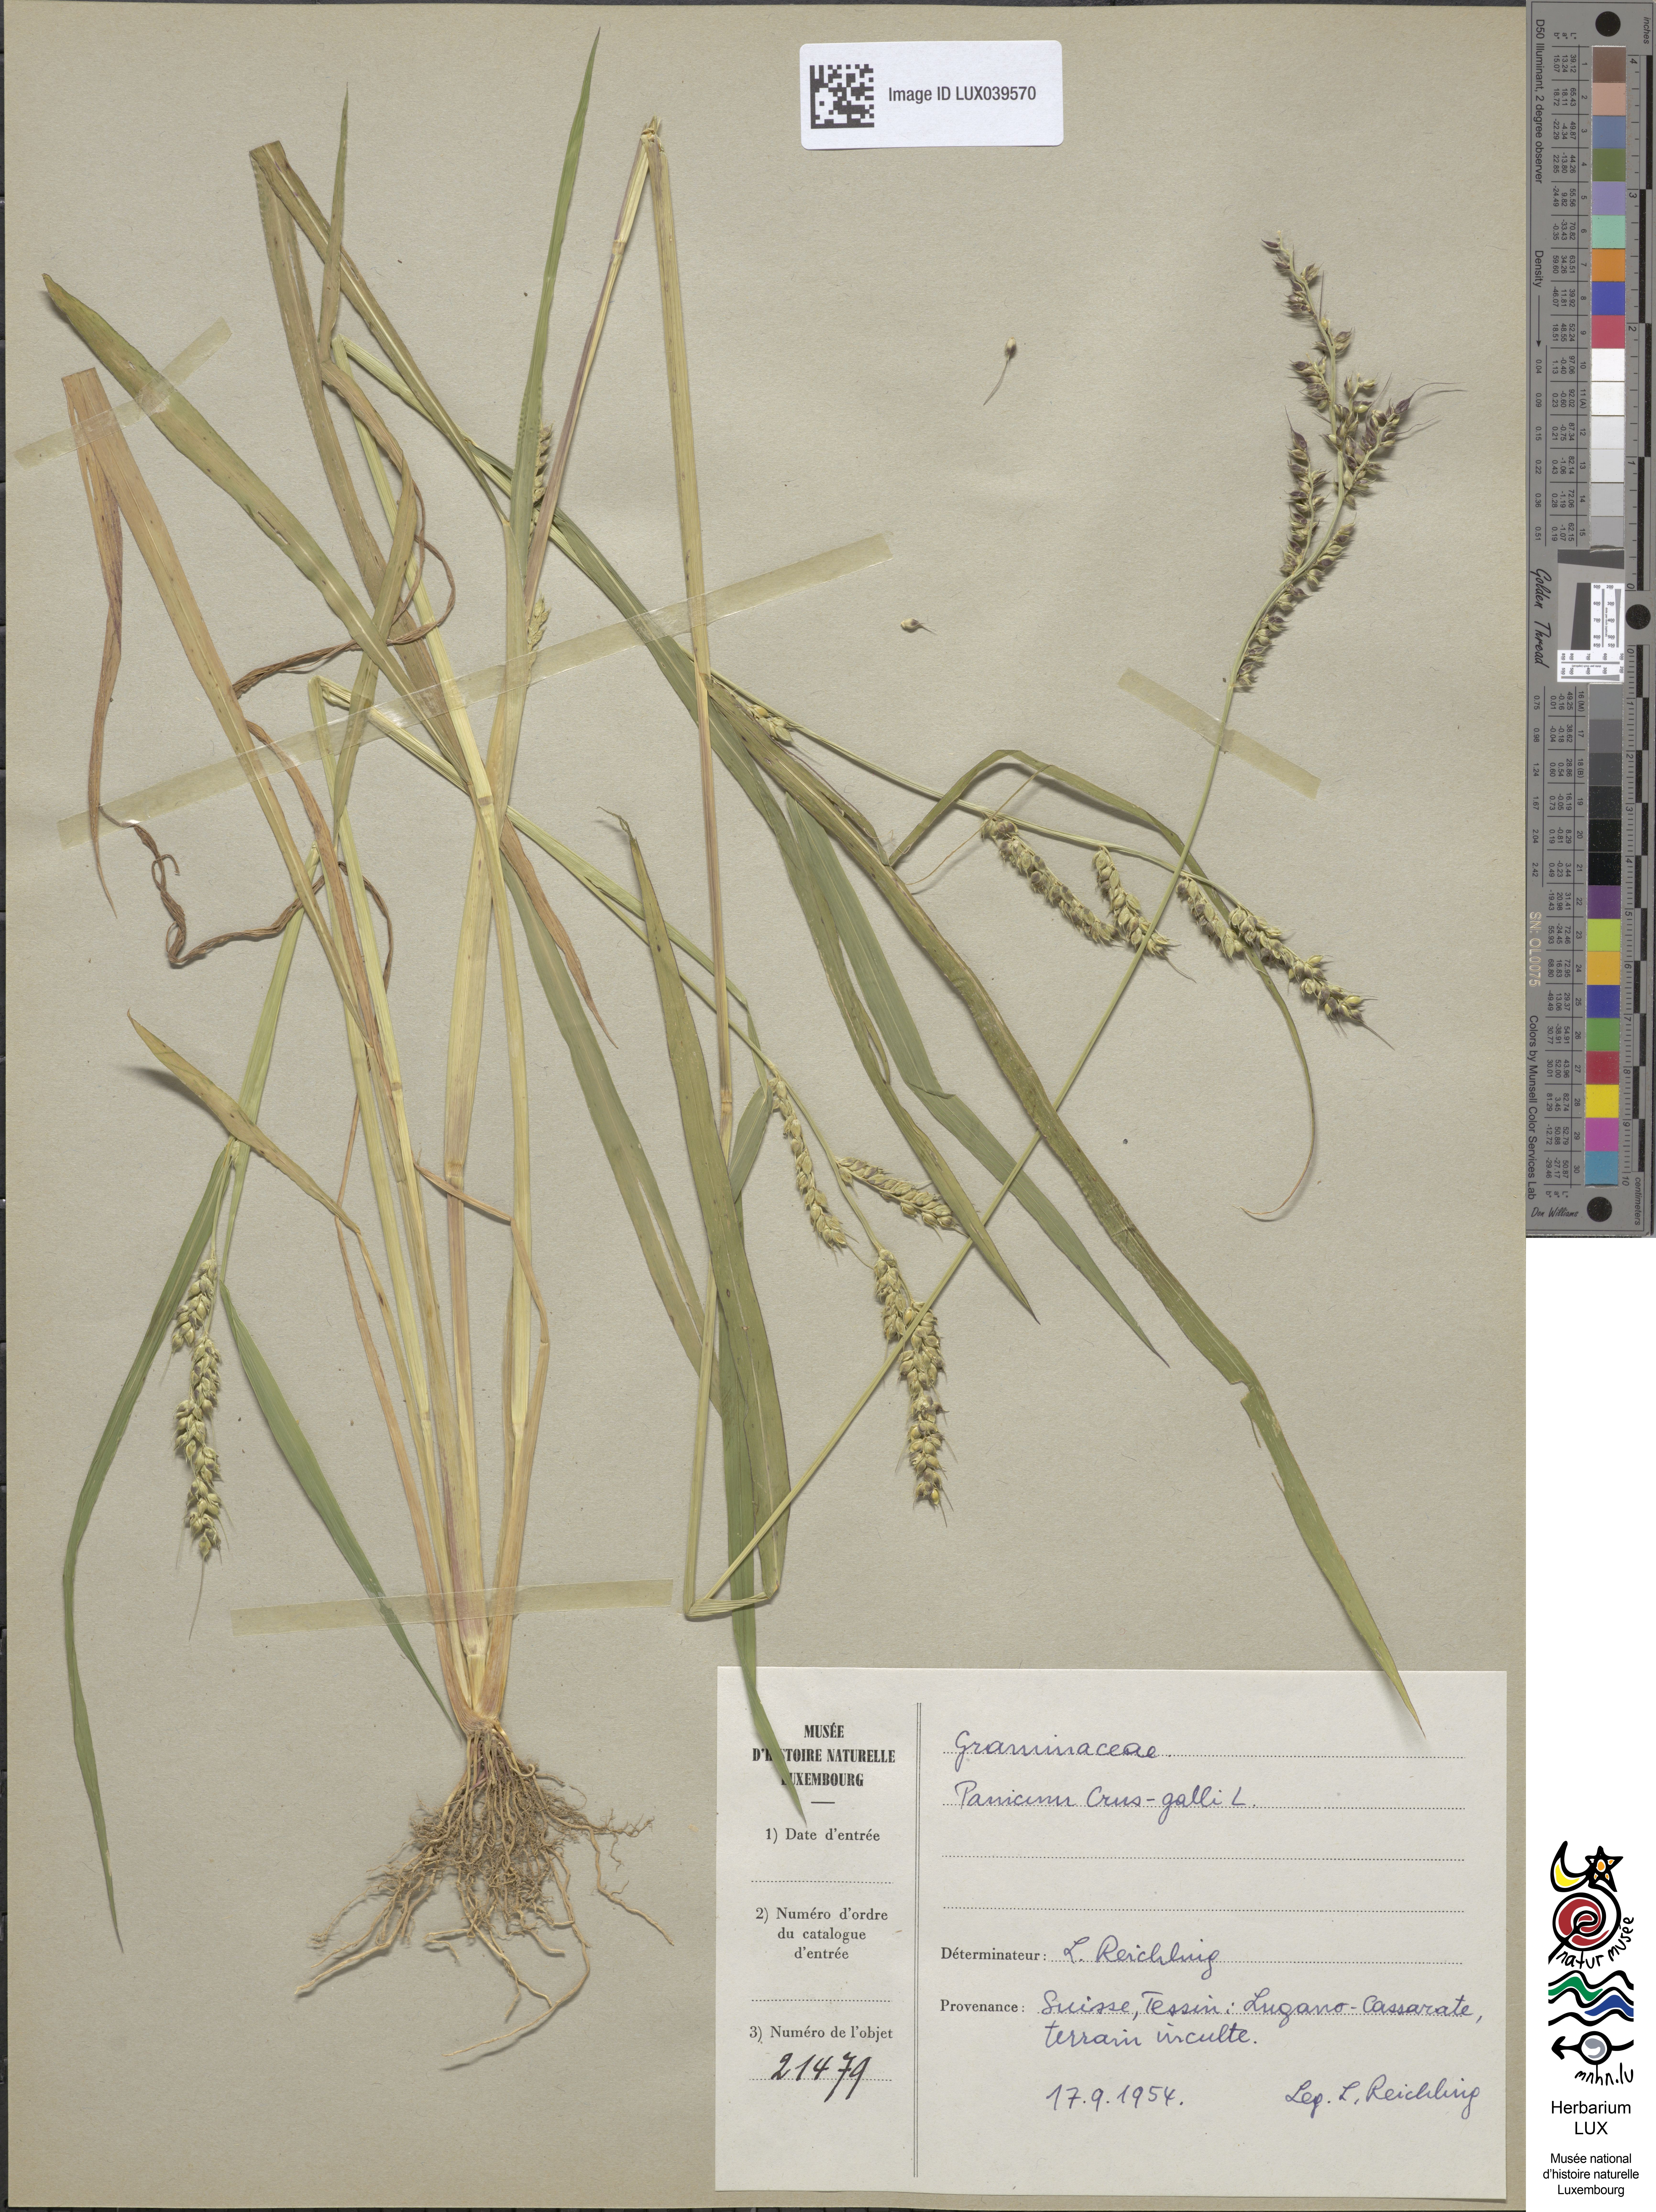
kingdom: Plantae
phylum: Tracheophyta
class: Liliopsida
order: Poales
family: Poaceae
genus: Echinochloa
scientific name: Echinochloa crus-galli
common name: Cockspur
